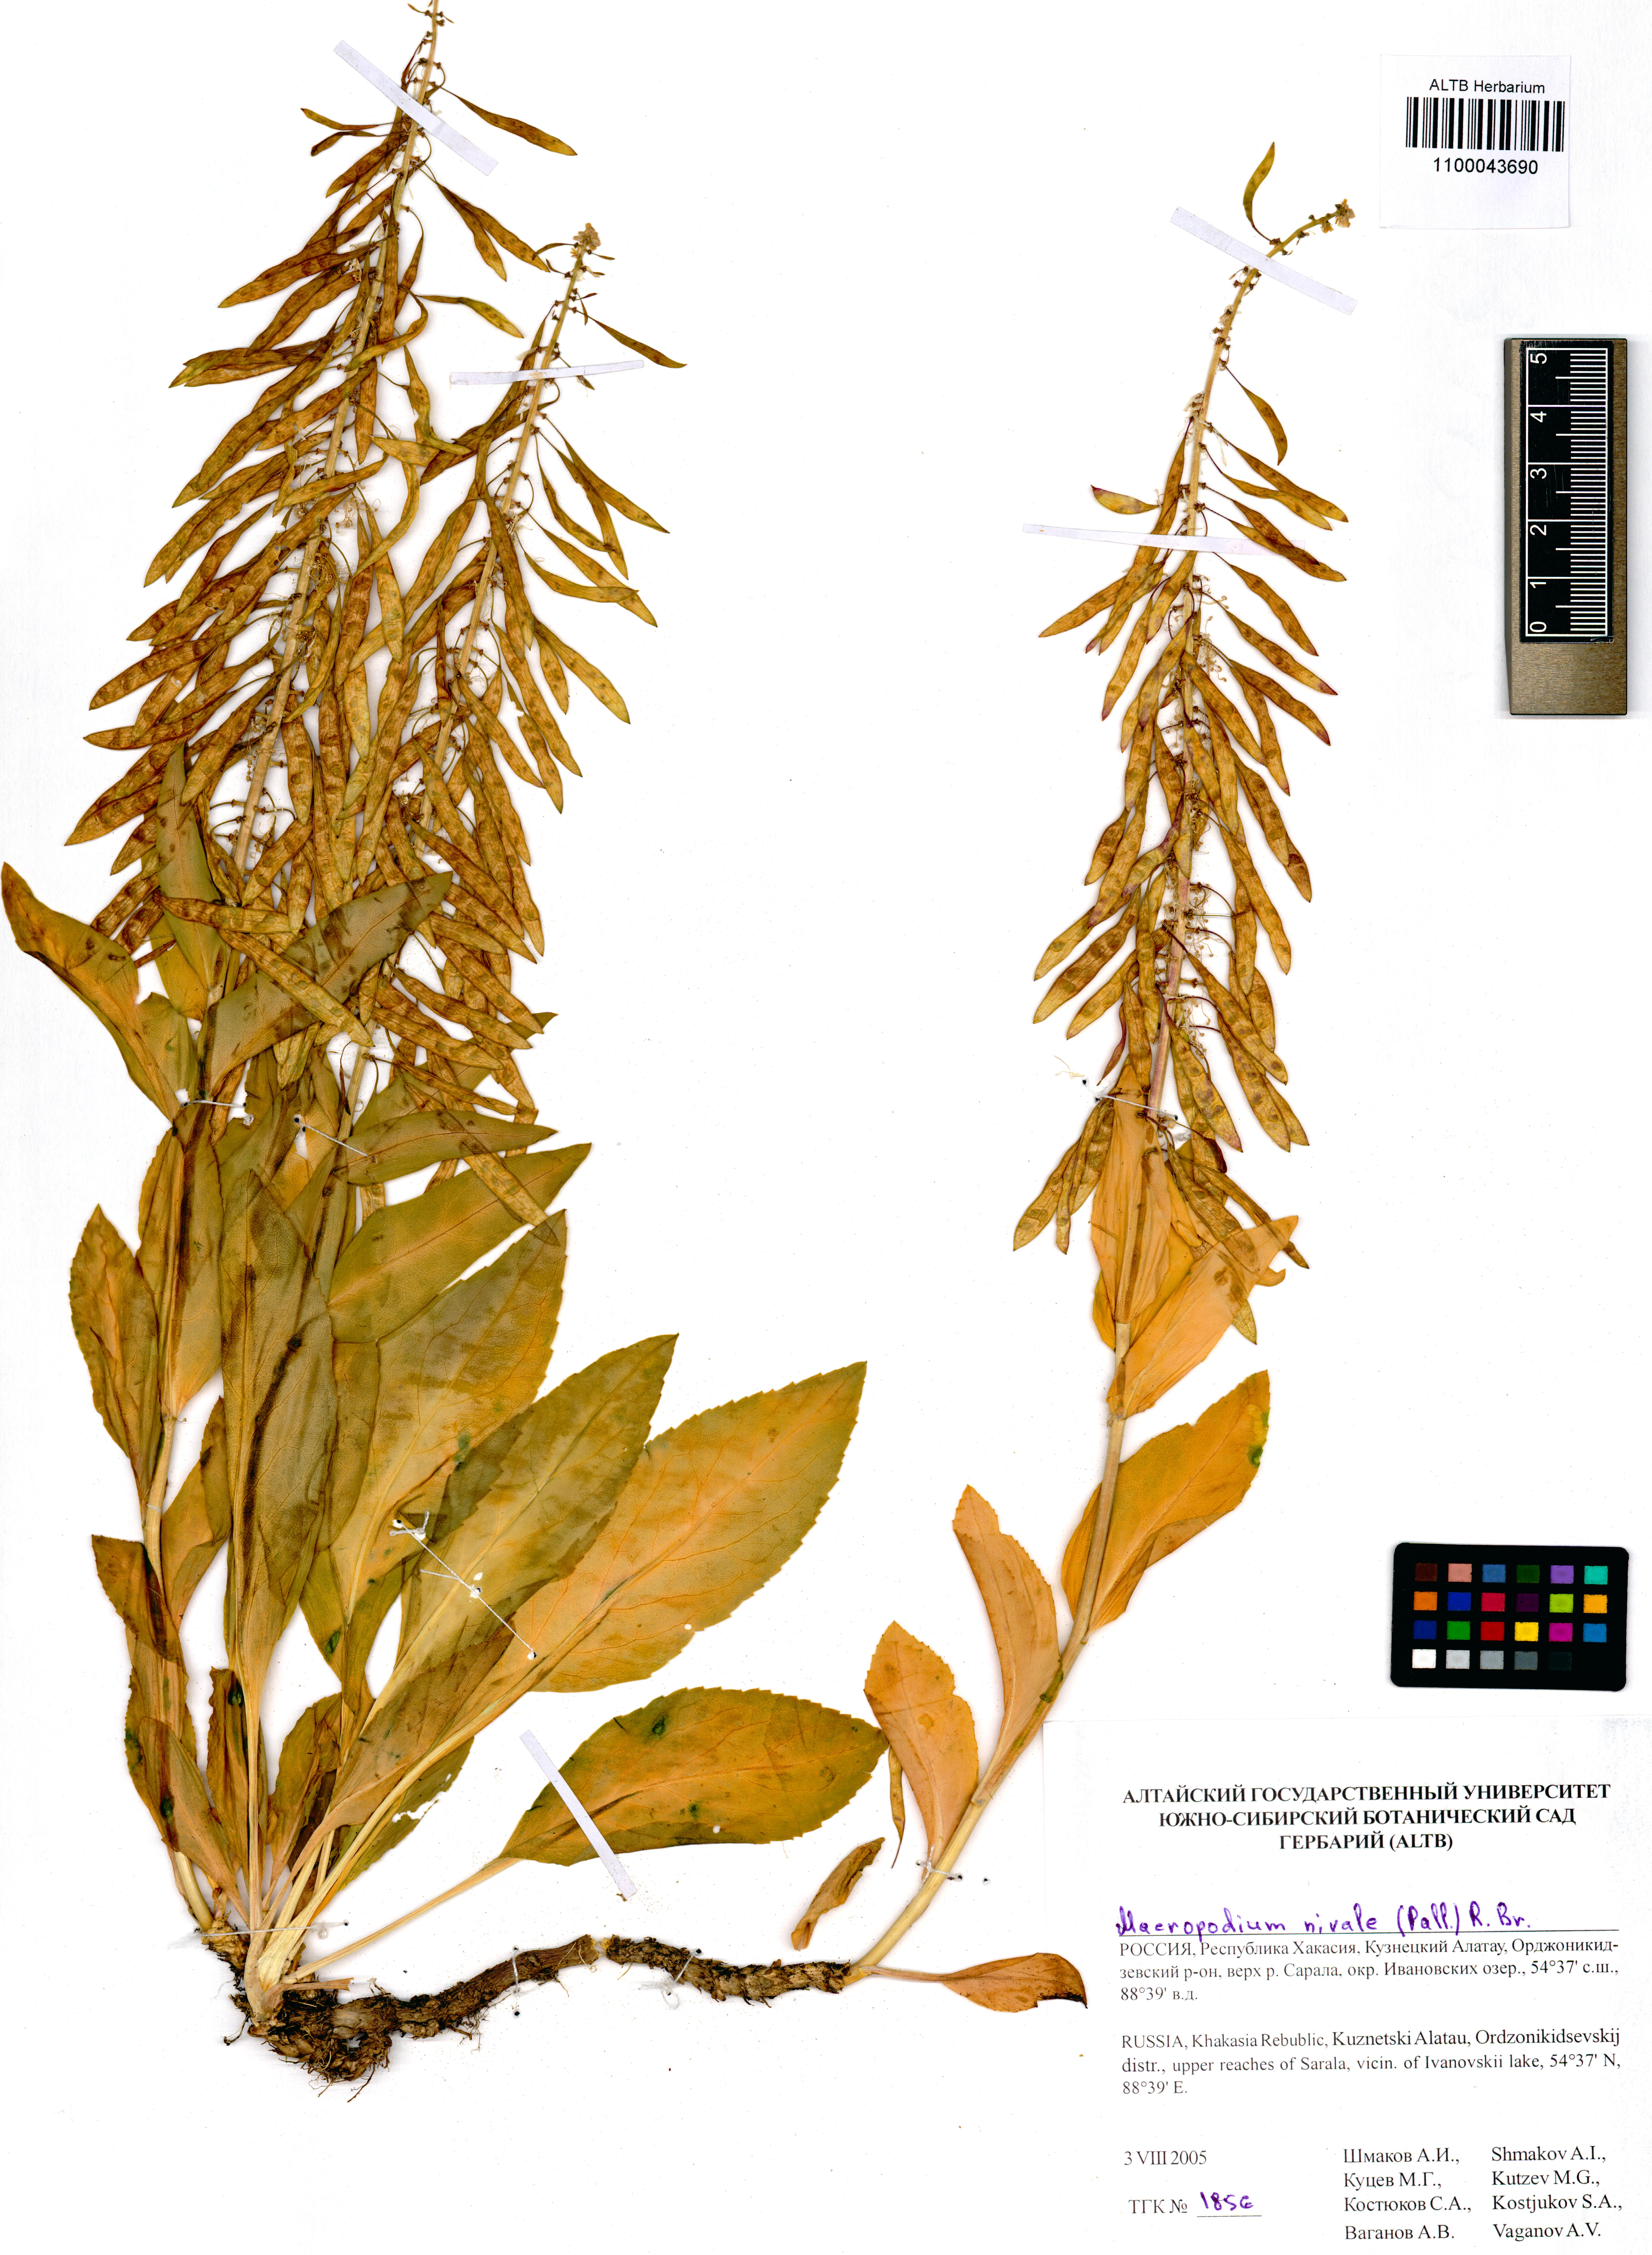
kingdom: Plantae
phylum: Tracheophyta
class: Magnoliopsida
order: Brassicales
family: Brassicaceae
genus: Macropodium
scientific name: Macropodium nivale
